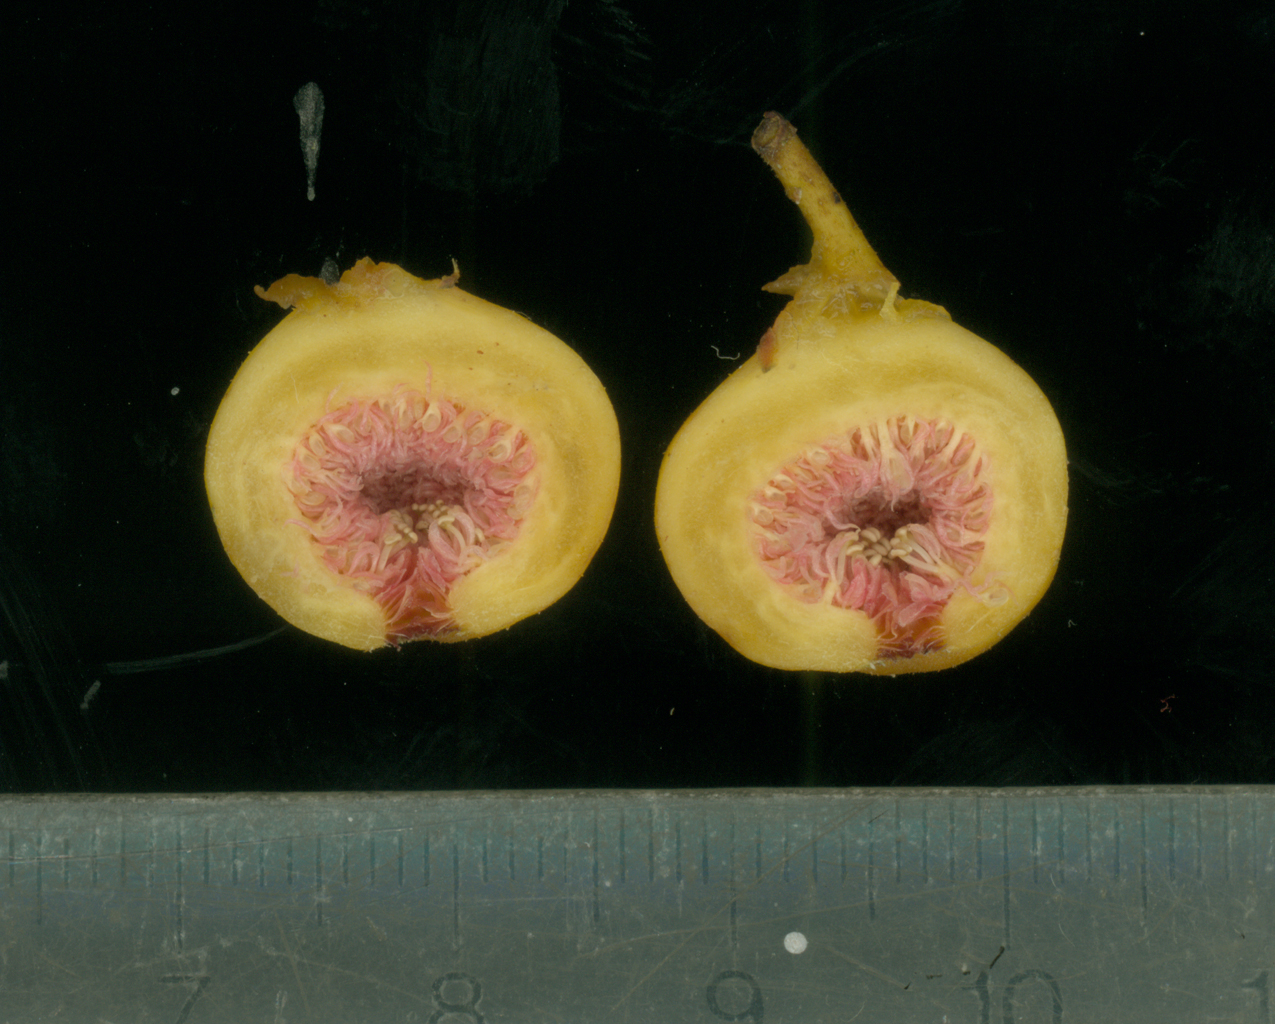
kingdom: Plantae
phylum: Tracheophyta
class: Magnoliopsida
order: Rosales
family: Moraceae
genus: Ficus
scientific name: Ficus opposita
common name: Figwood
